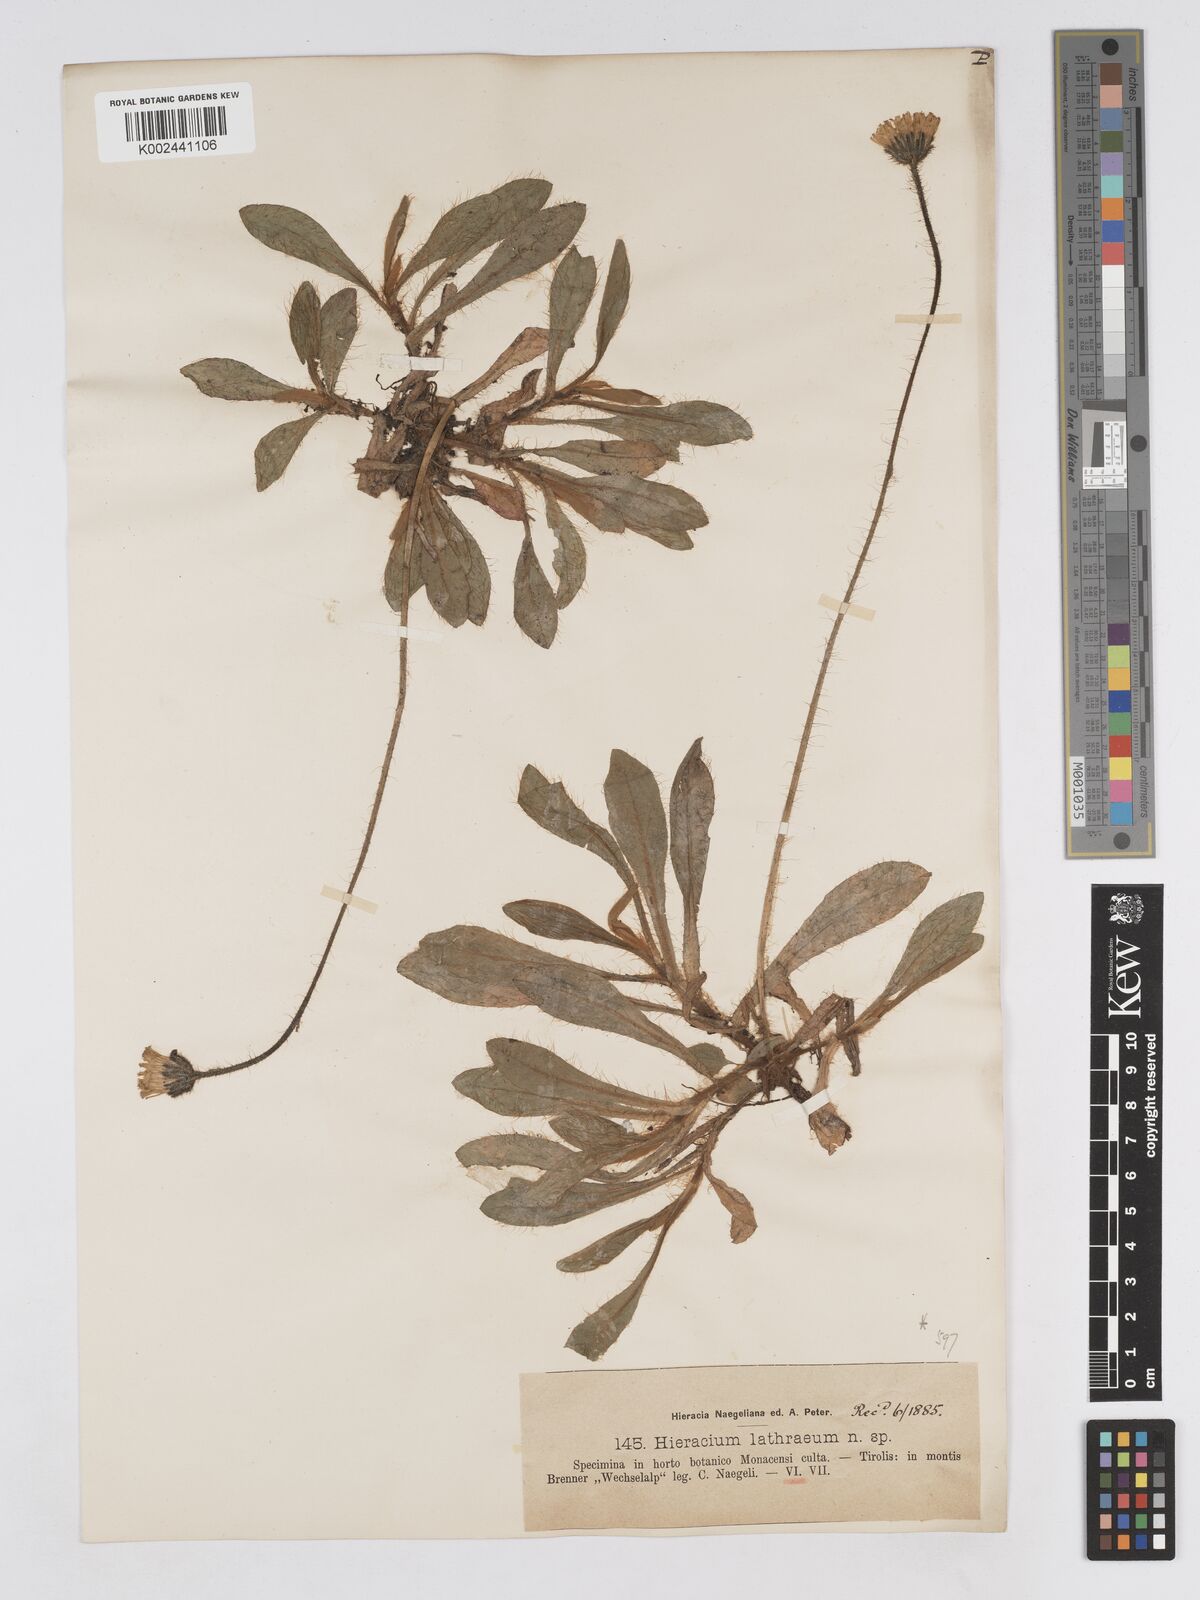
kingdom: Plantae
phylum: Tracheophyta
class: Magnoliopsida
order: Asterales
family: Asteraceae
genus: Pilosella
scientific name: Pilosella lathraea
